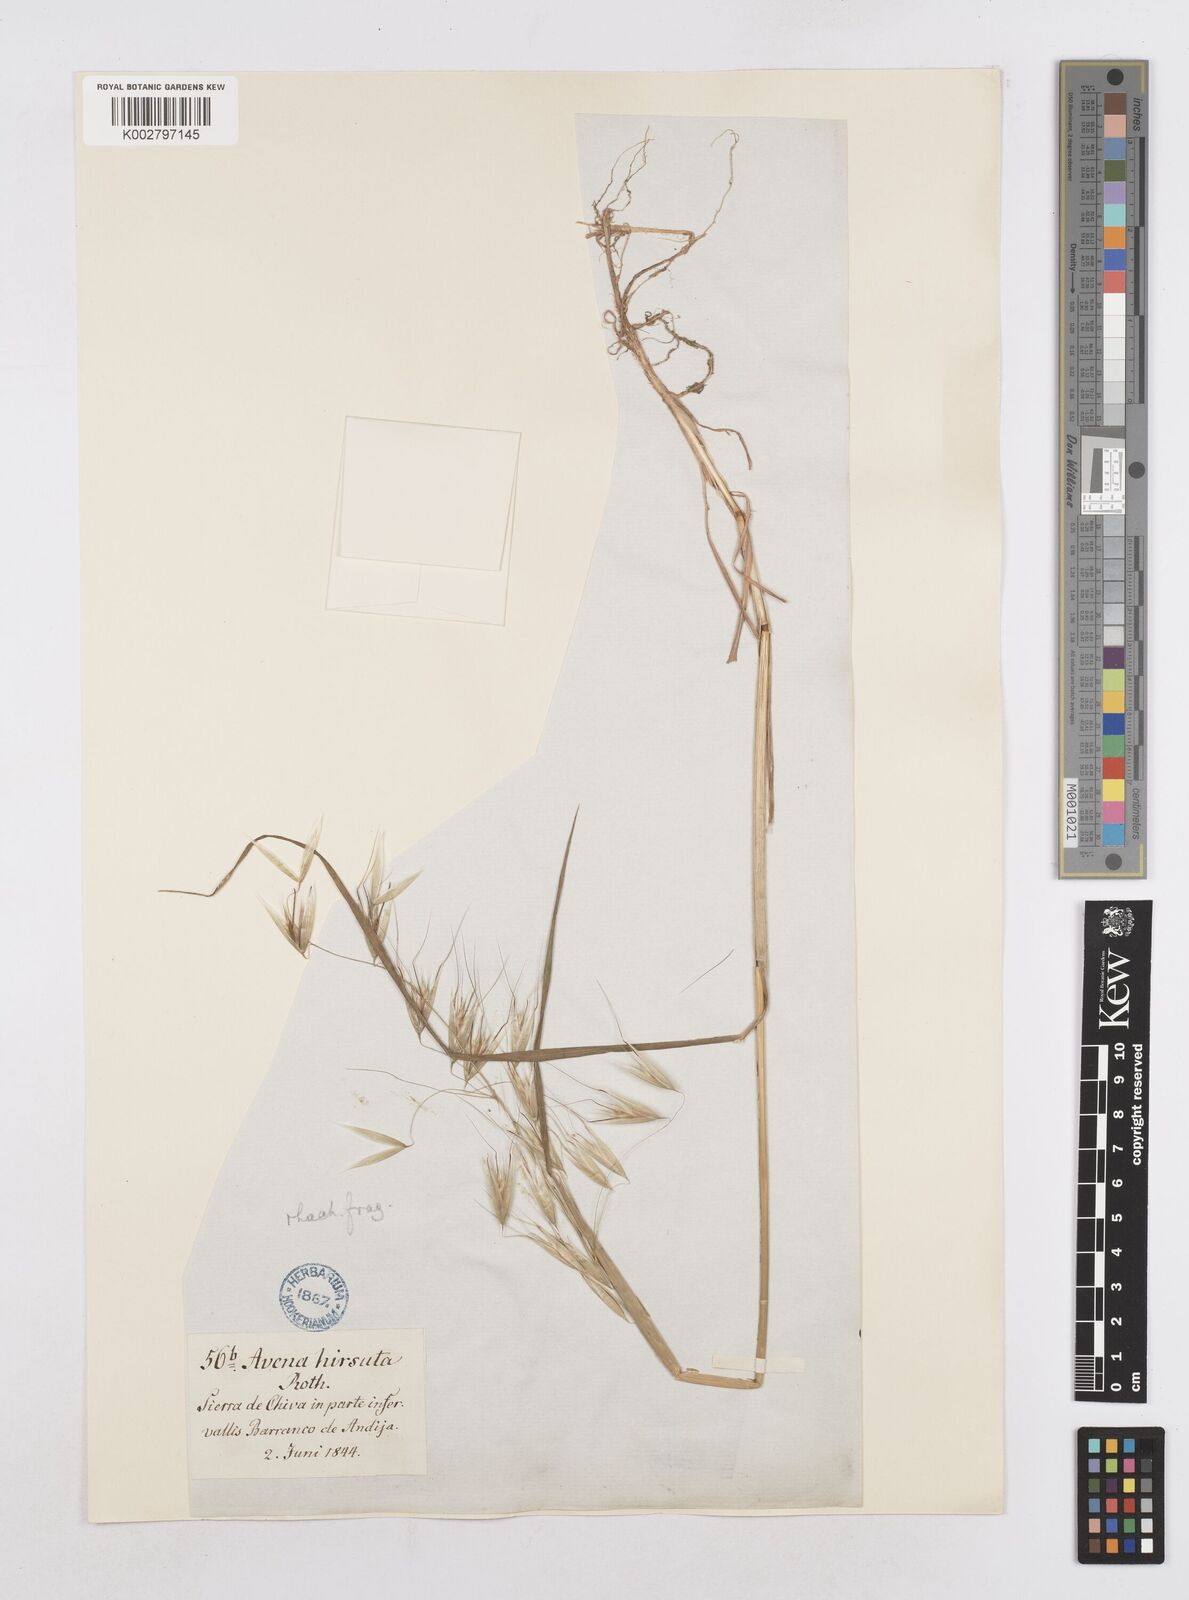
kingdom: Plantae
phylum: Tracheophyta
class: Liliopsida
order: Poales
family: Poaceae
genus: Avena
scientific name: Avena
